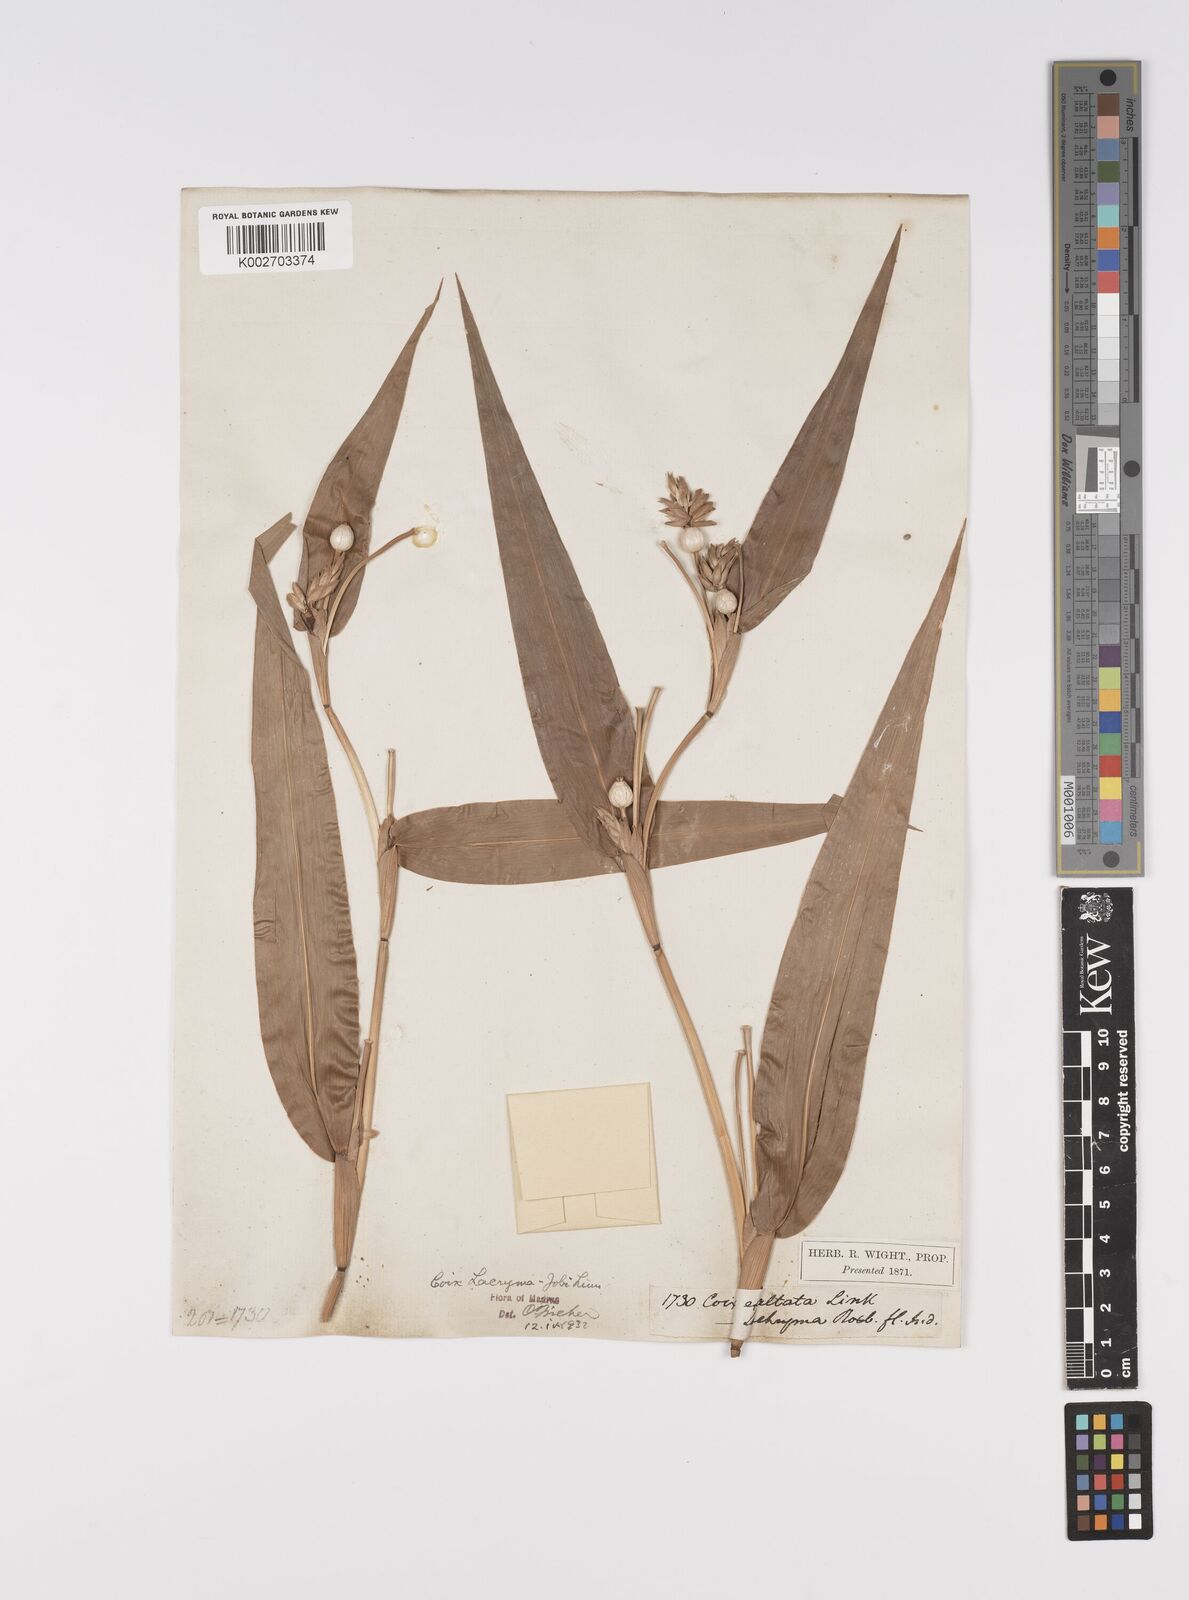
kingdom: Plantae
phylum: Tracheophyta
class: Liliopsida
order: Poales
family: Poaceae
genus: Coix
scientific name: Coix lacryma-jobi
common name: Job's tears
